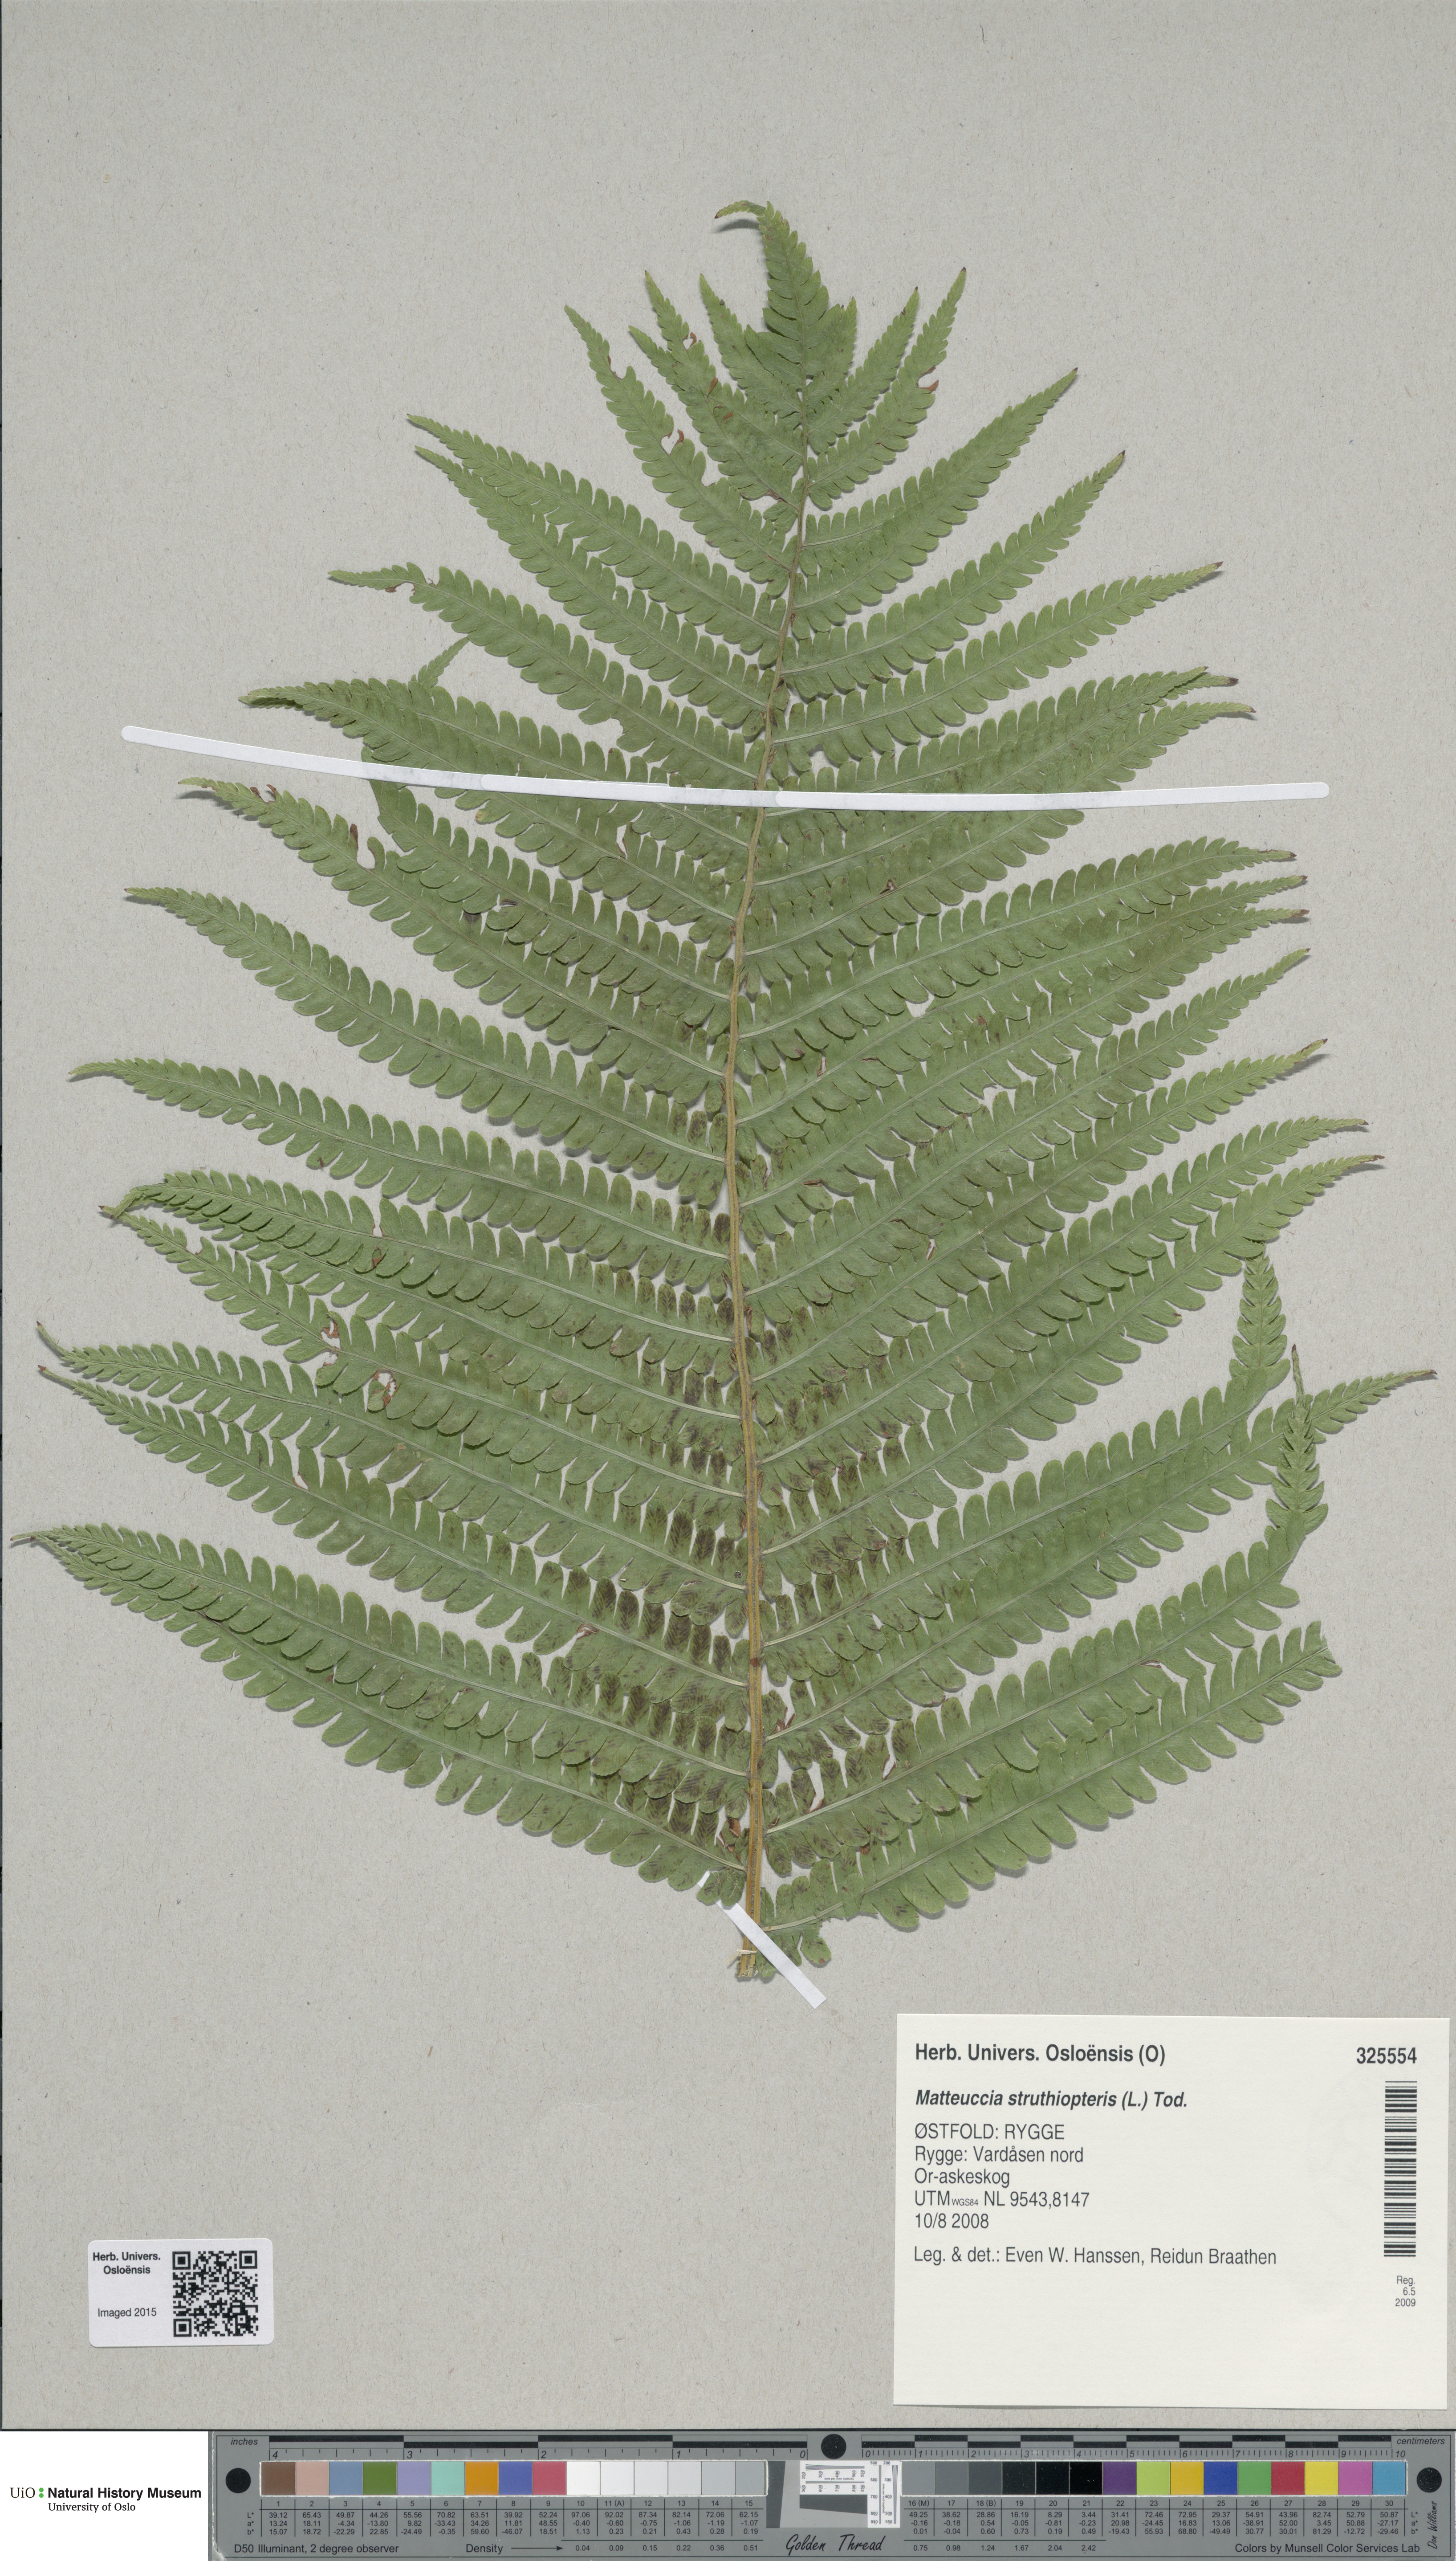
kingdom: Plantae
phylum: Tracheophyta
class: Polypodiopsida
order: Polypodiales
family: Onocleaceae
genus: Matteuccia
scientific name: Matteuccia struthiopteris
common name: Ostrich fern
